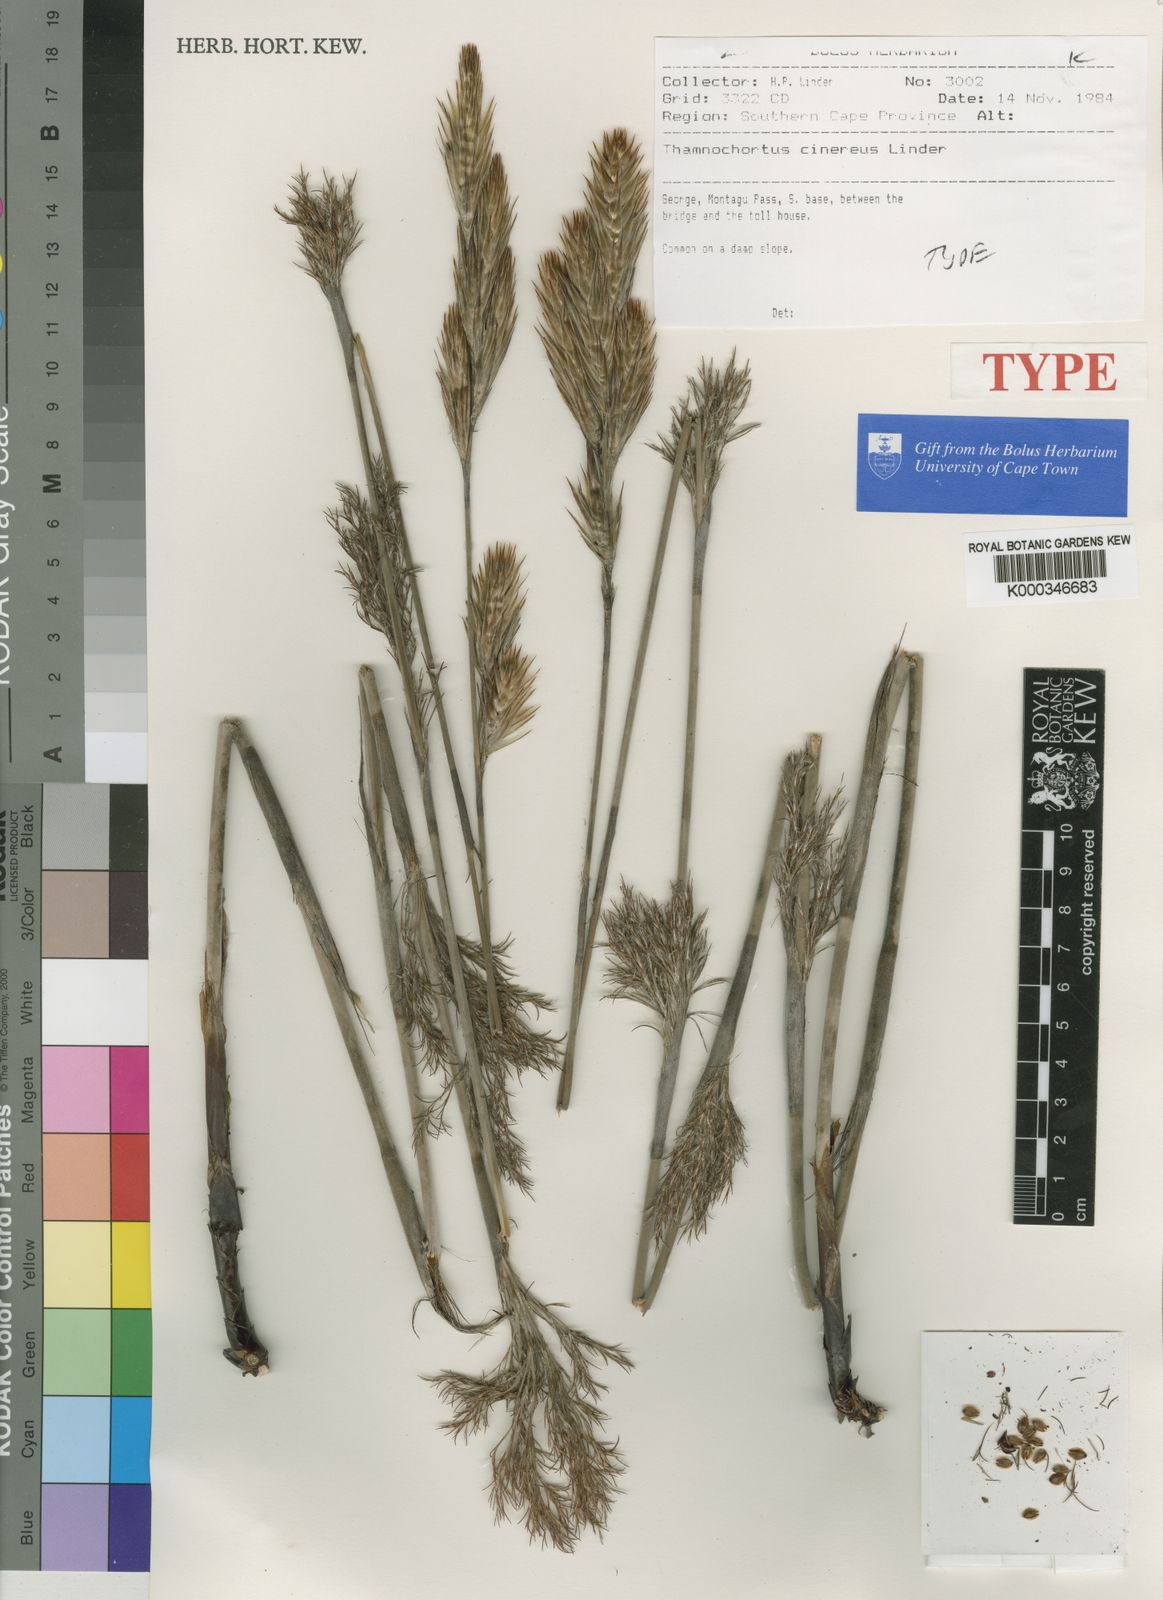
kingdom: Plantae
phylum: Tracheophyta
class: Liliopsida
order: Poales
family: Restionaceae
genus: Thamnochortus
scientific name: Thamnochortus cinereus
